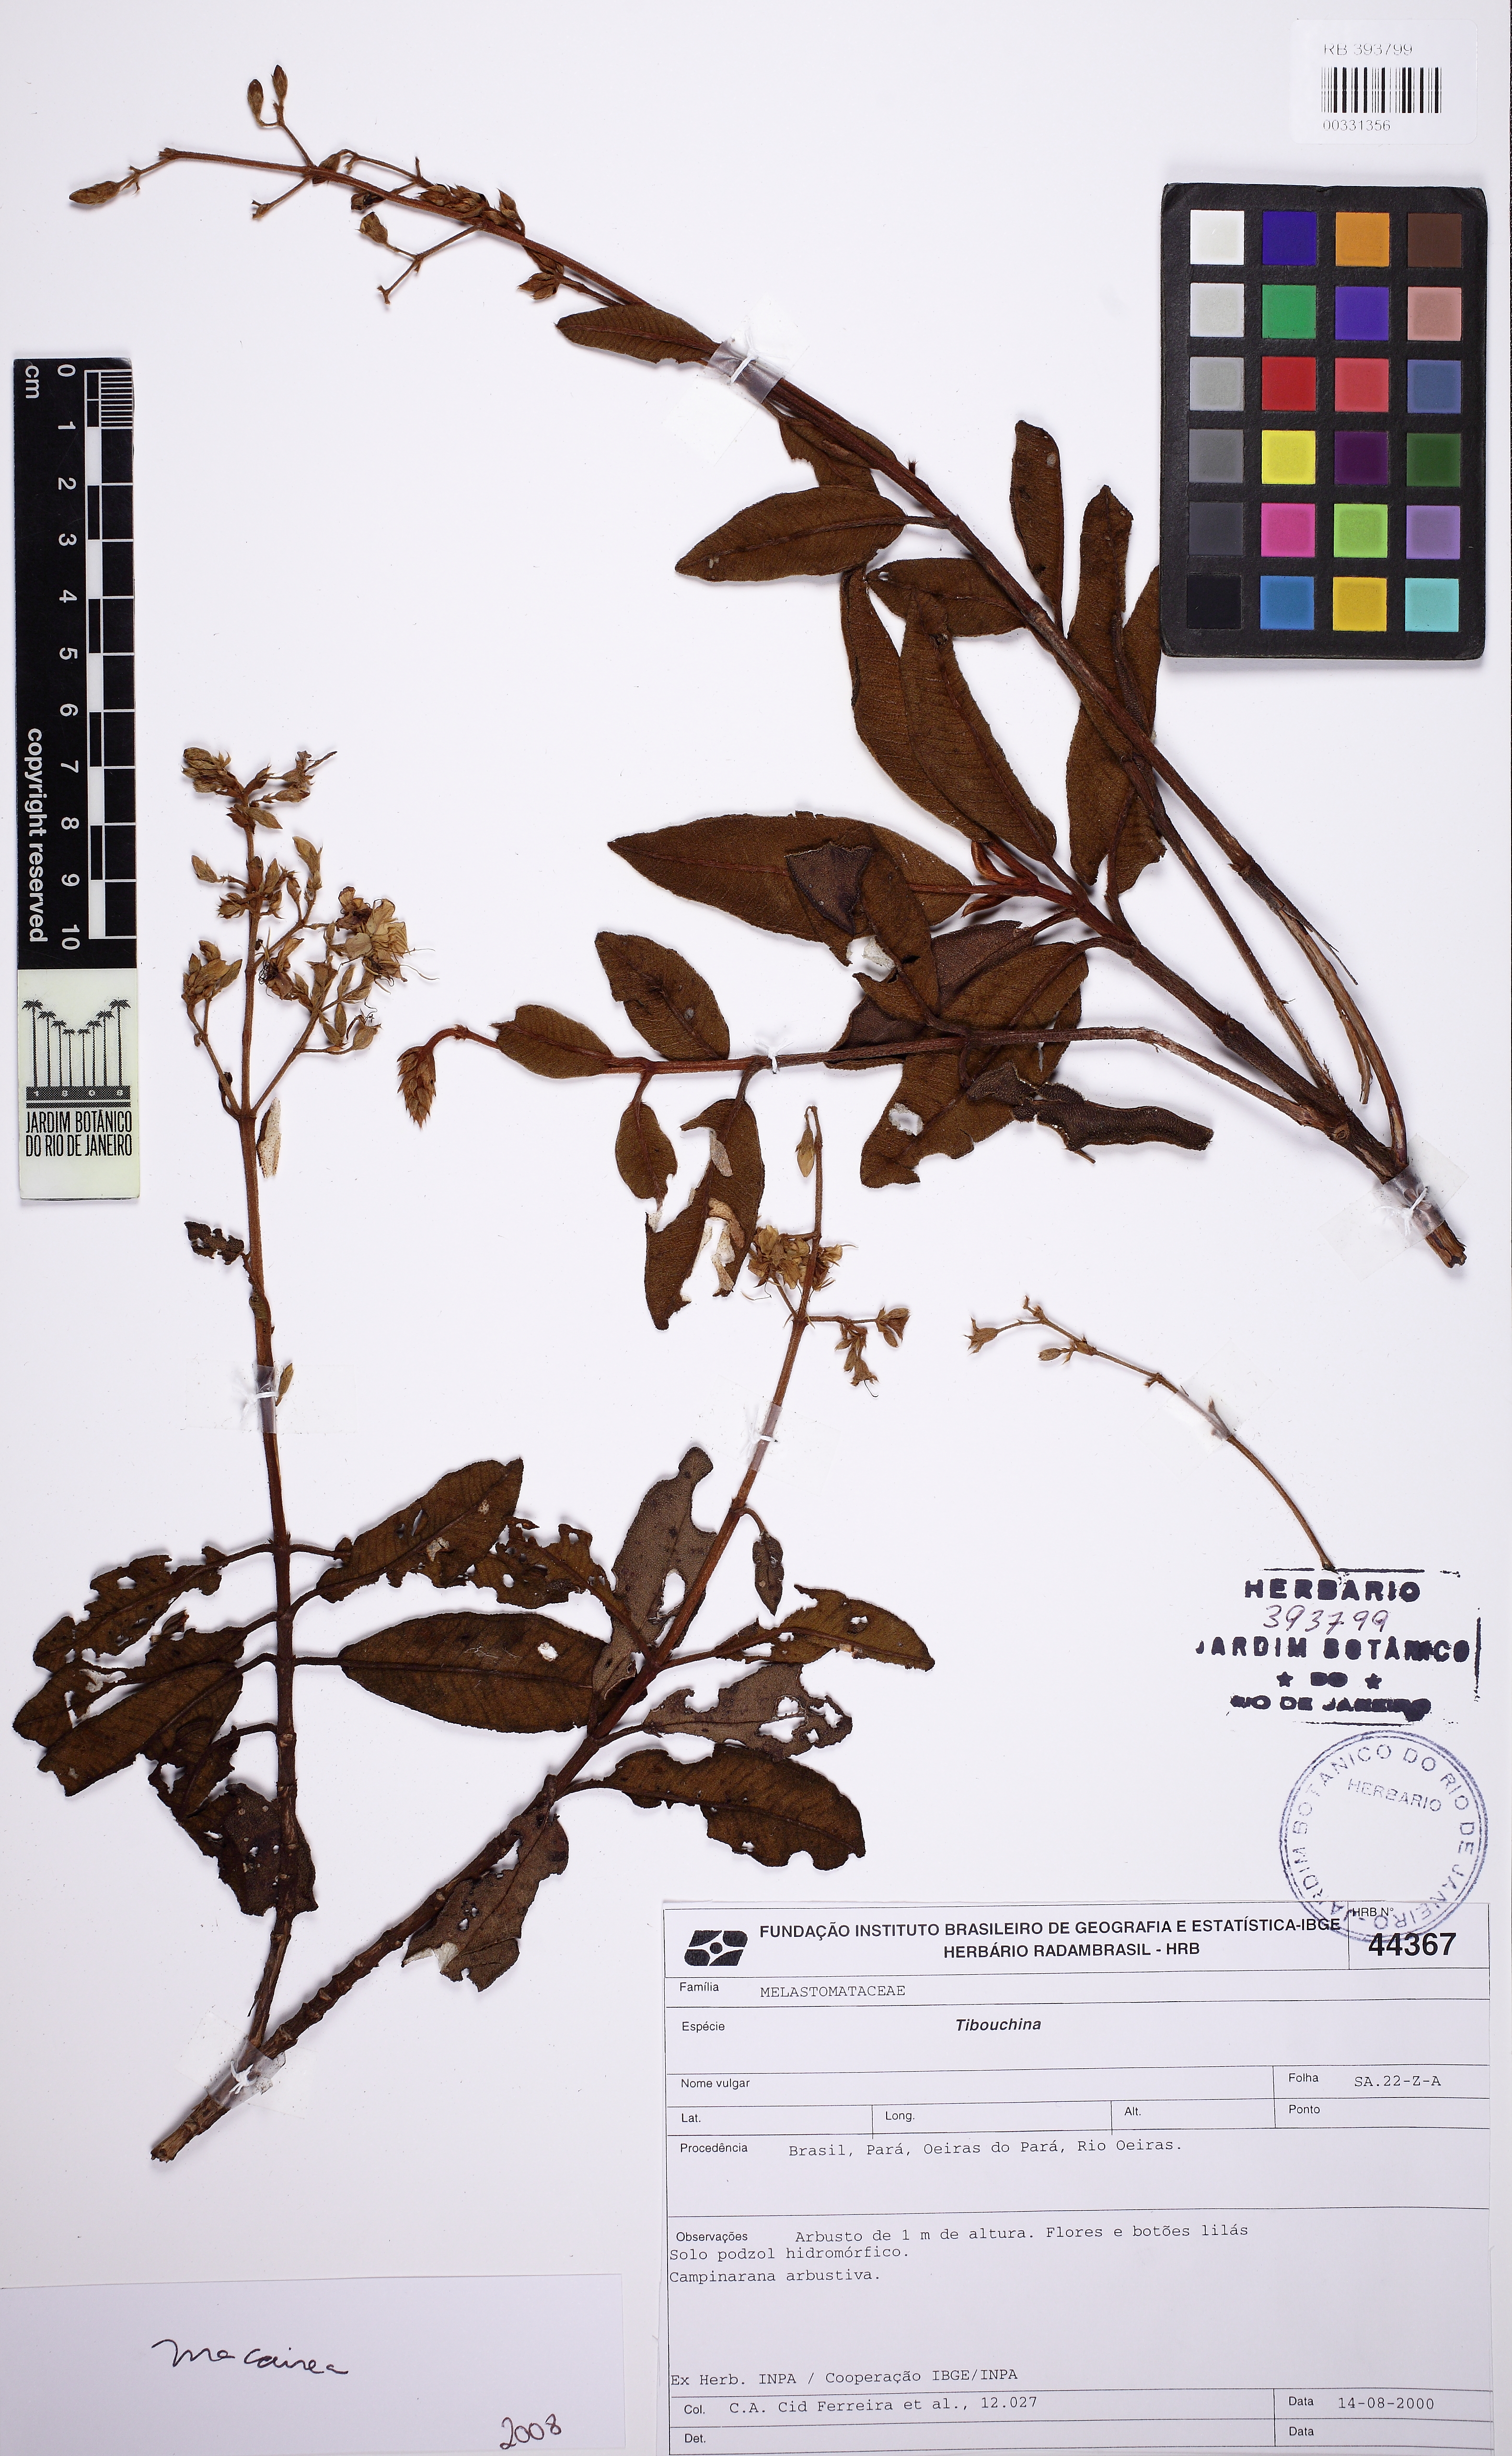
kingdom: Plantae
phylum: Tracheophyta
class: Magnoliopsida
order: Myrtales
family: Melastomataceae
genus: Macairea
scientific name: Macairea thyrsiflora
